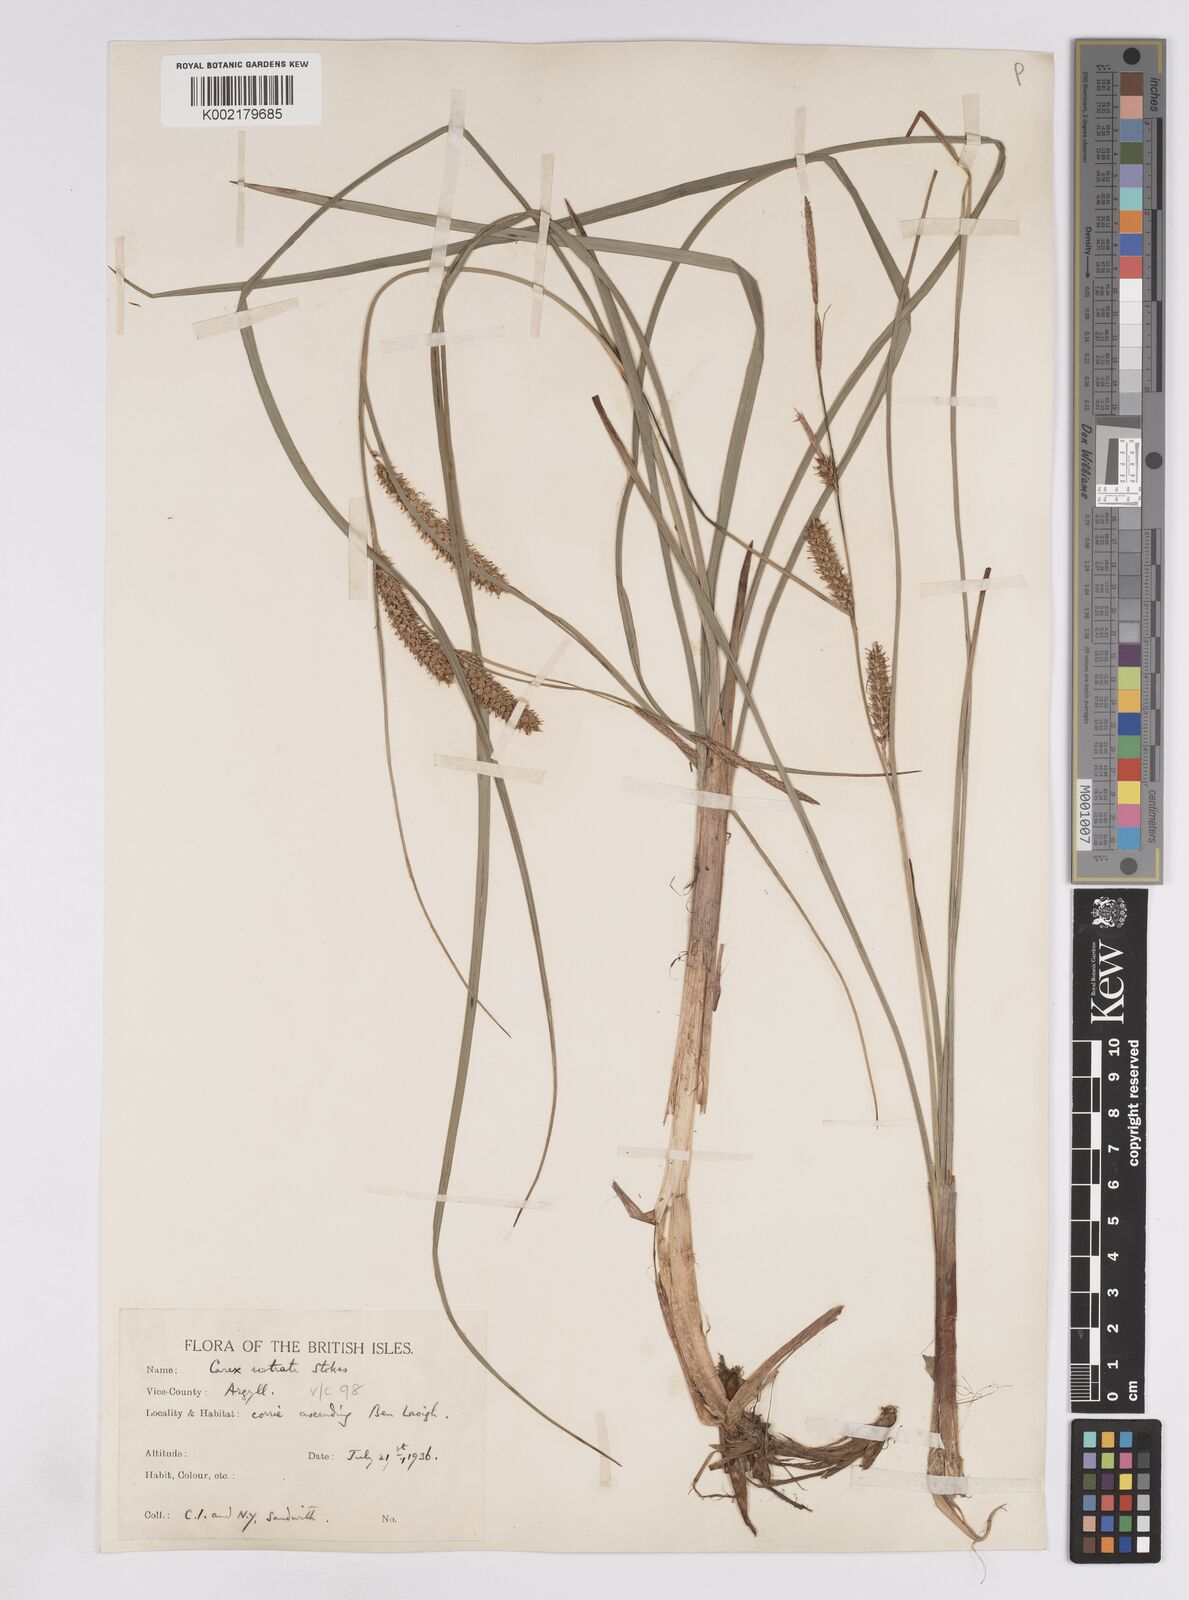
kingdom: Plantae
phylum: Tracheophyta
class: Liliopsida
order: Poales
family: Cyperaceae
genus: Carex
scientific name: Carex rostrata
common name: Bottle sedge
